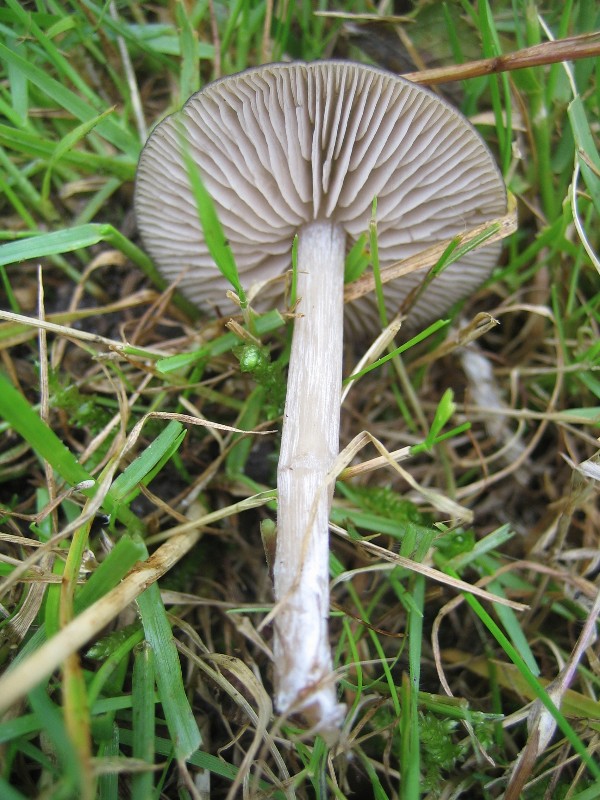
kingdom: Fungi
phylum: Basidiomycota
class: Agaricomycetes
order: Agaricales
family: Entolomataceae
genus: Entoloma
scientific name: Entoloma
